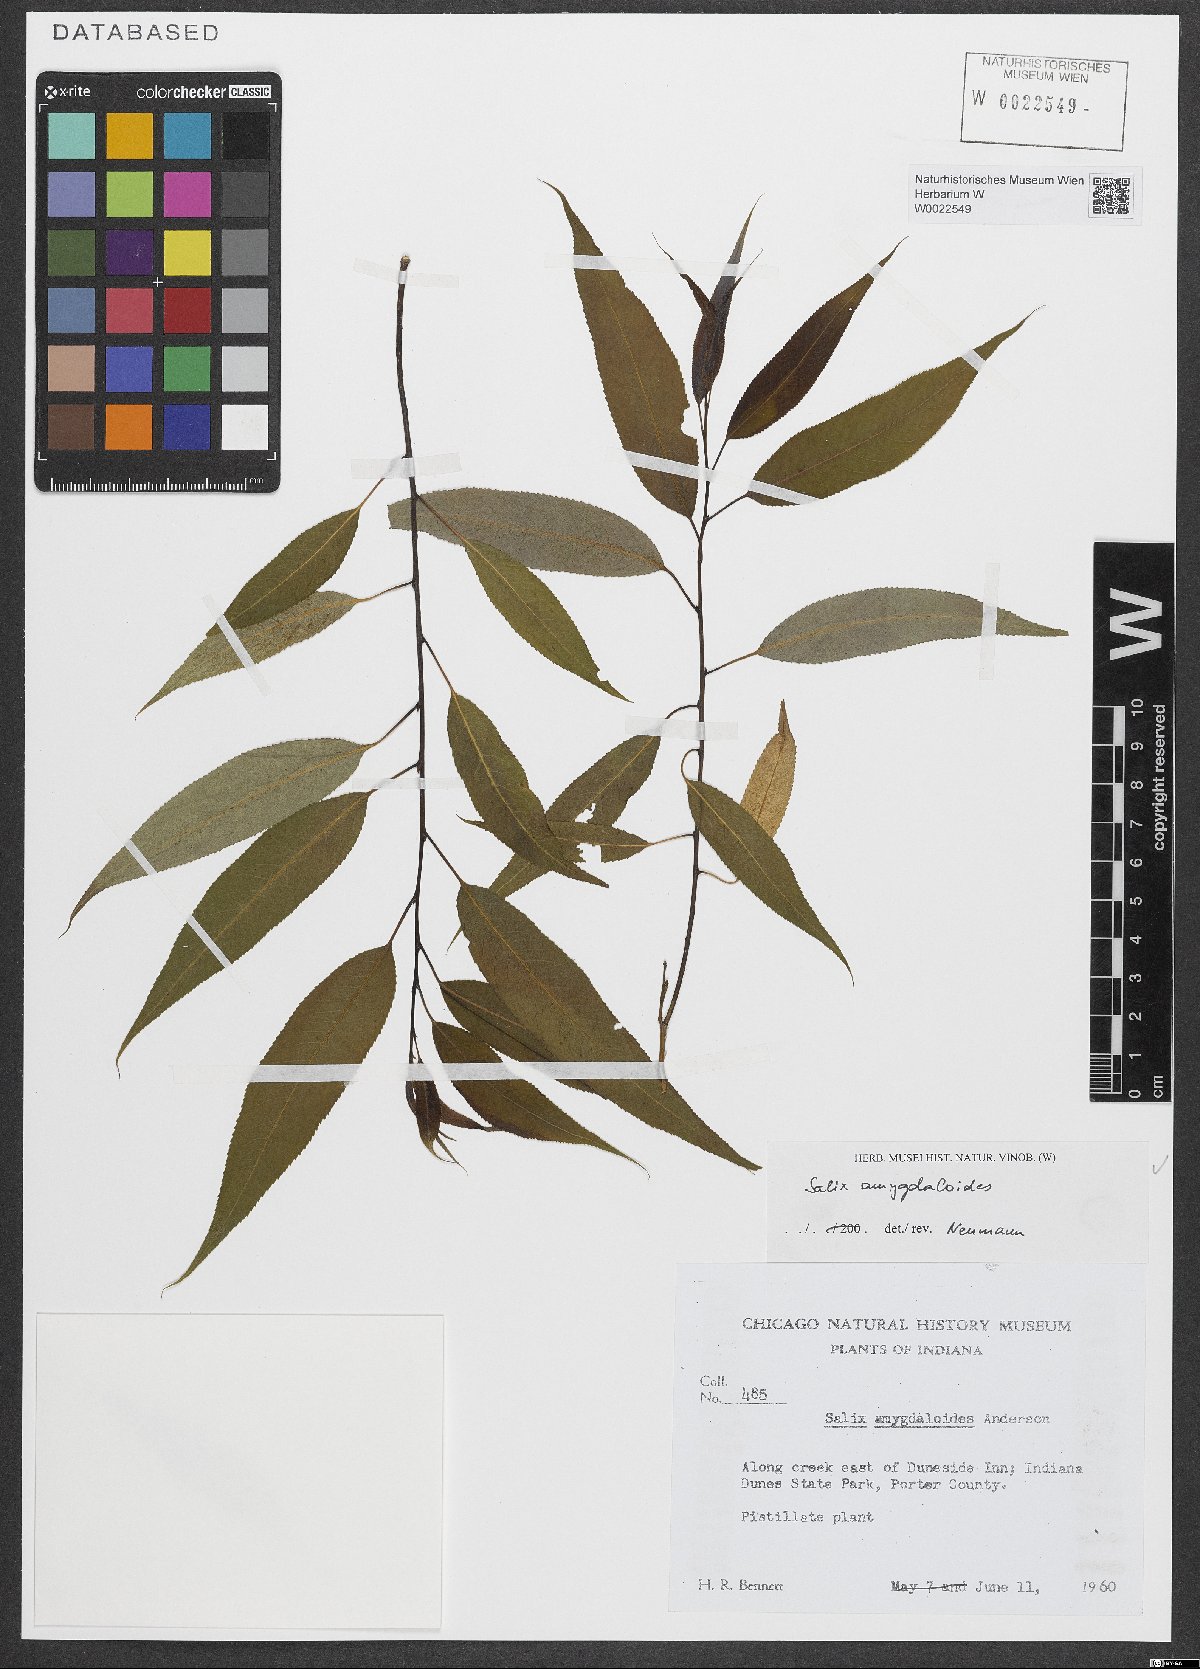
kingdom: Plantae
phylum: Tracheophyta
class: Magnoliopsida
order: Malpighiales
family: Salicaceae
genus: Salix
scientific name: Salix amygdaloides
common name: Peach leaf willow
